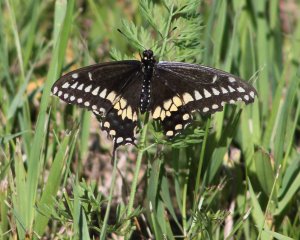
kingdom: Animalia
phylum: Arthropoda
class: Insecta
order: Lepidoptera
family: Papilionidae
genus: Papilio
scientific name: Papilio polyxenes
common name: Black Swallowtail
